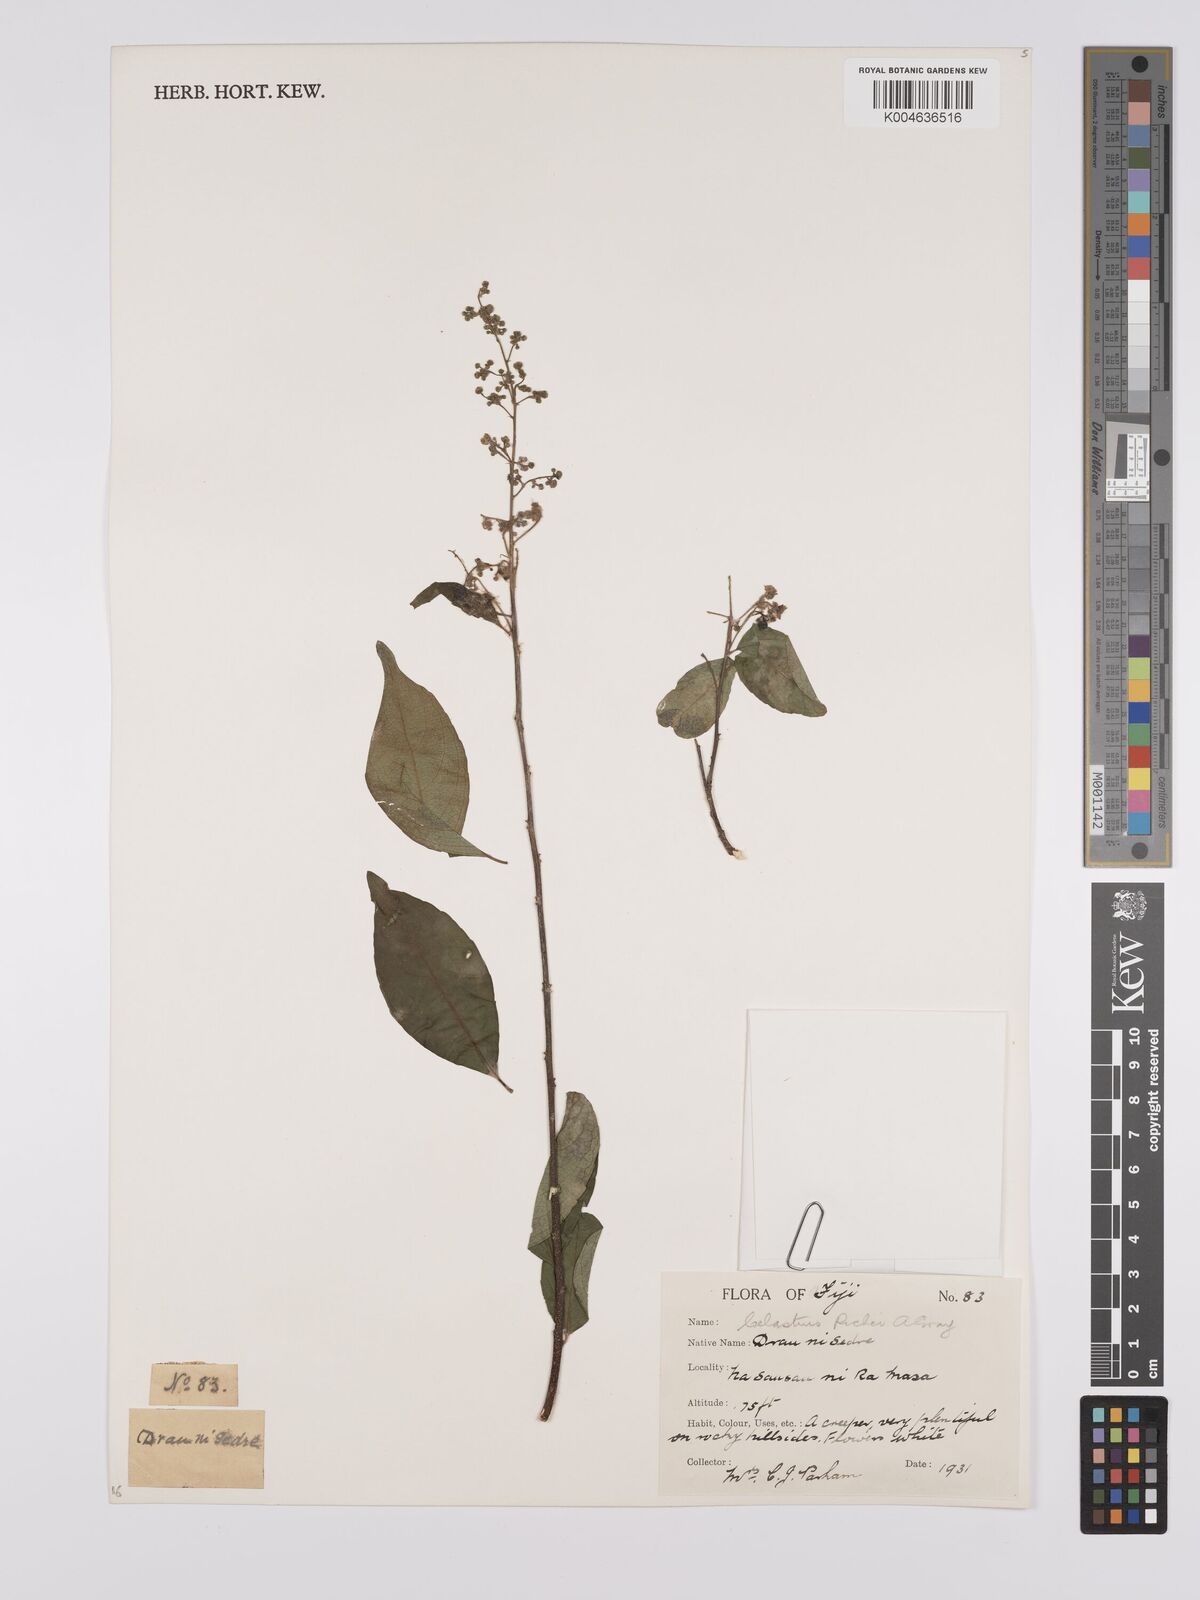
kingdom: Plantae
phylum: Tracheophyta
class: Magnoliopsida
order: Celastrales
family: Celastraceae
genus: Celastrus
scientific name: Celastrus richii
